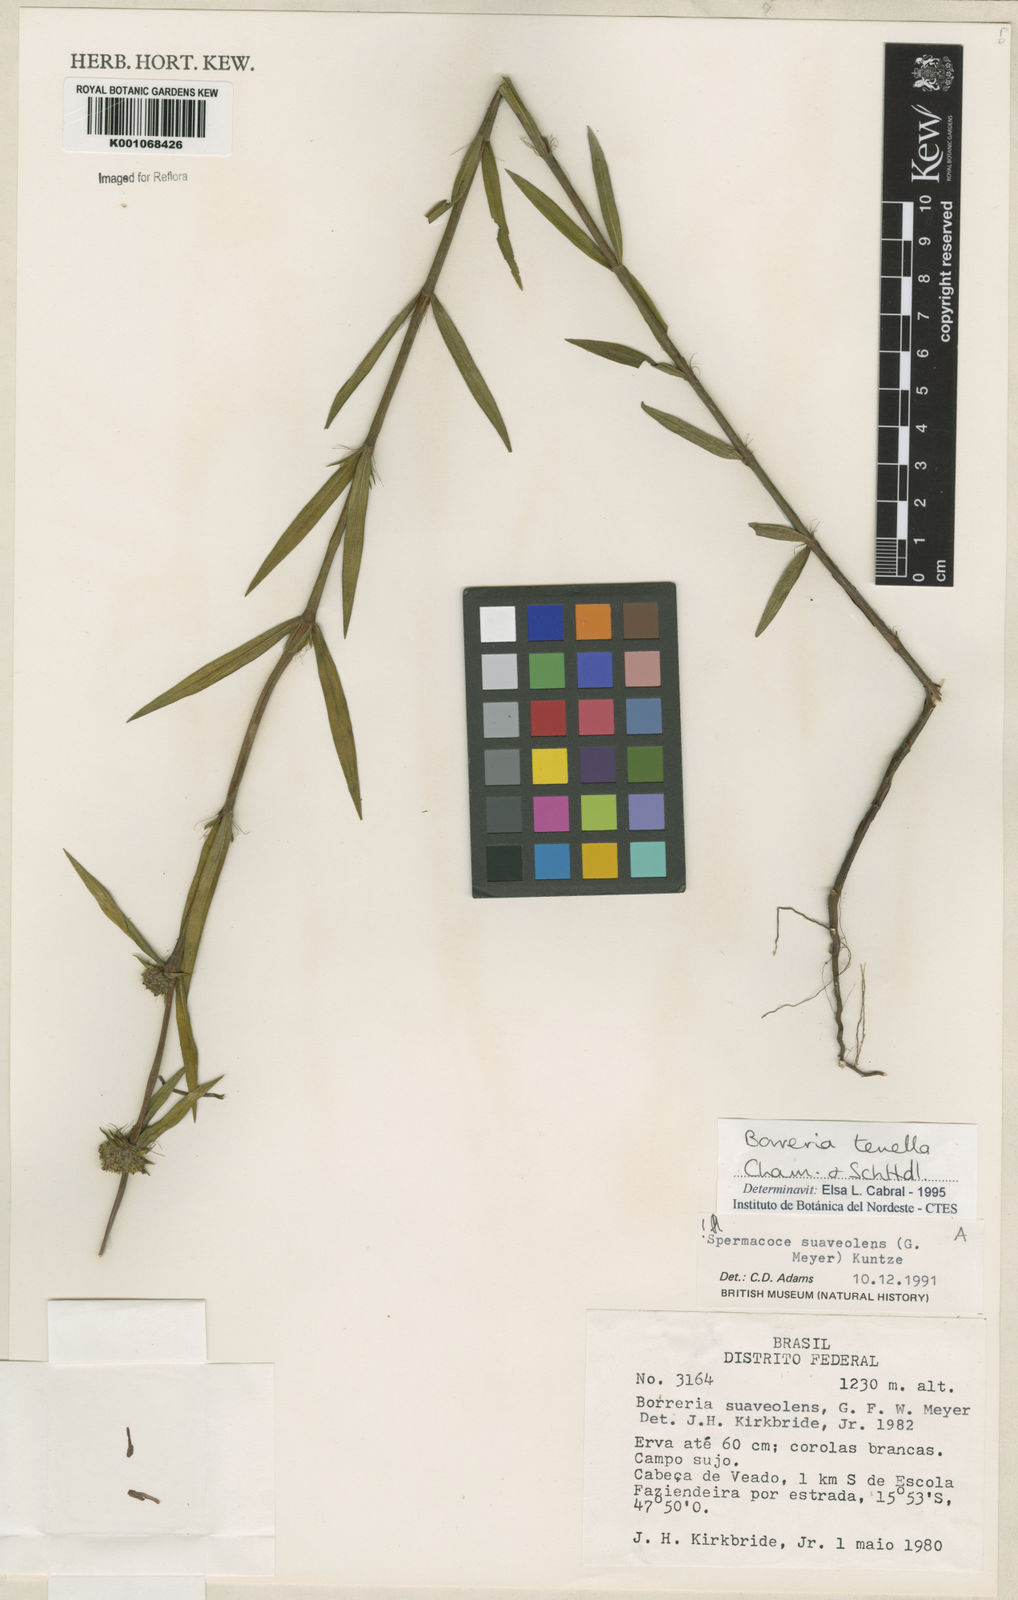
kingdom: Plantae
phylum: Tracheophyta
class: Magnoliopsida
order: Gentianales
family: Rubiaceae
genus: Spermacoce
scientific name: Spermacoce suaveolens
